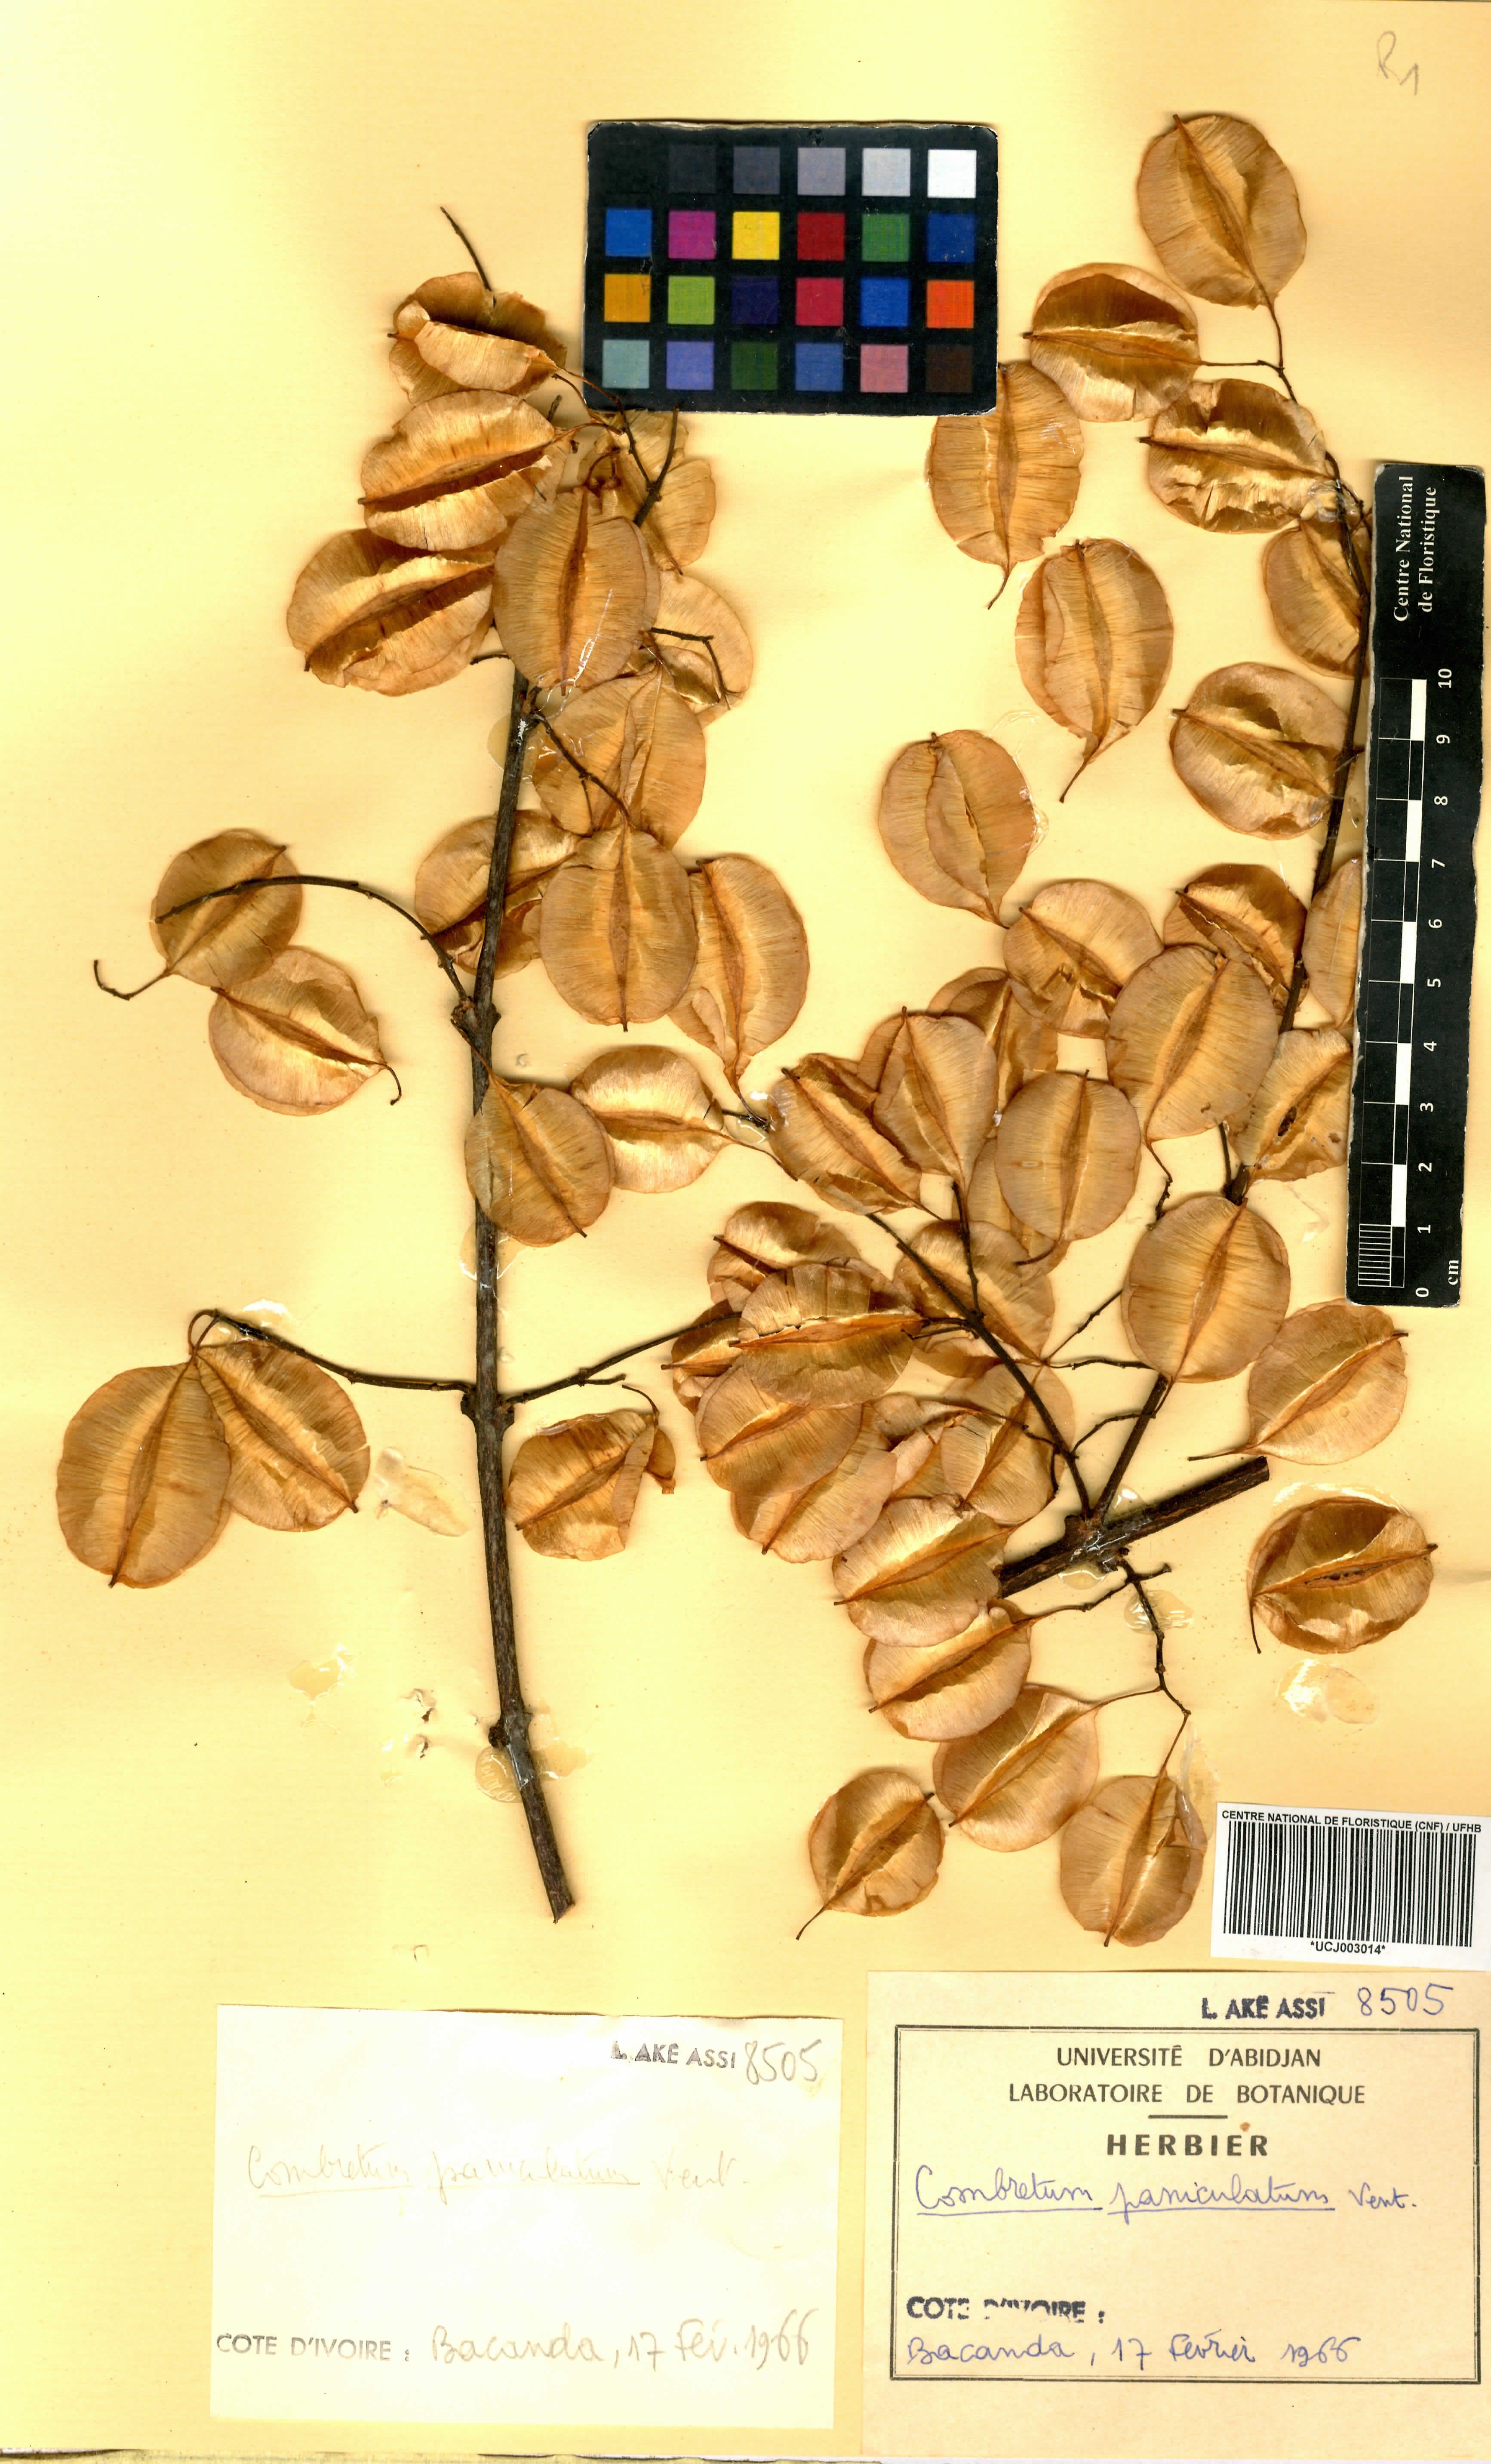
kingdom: Plantae
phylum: Tracheophyta
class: Magnoliopsida
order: Myrtales
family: Combretaceae
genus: Combretum
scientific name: Combretum paniculatum
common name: Fire vine
